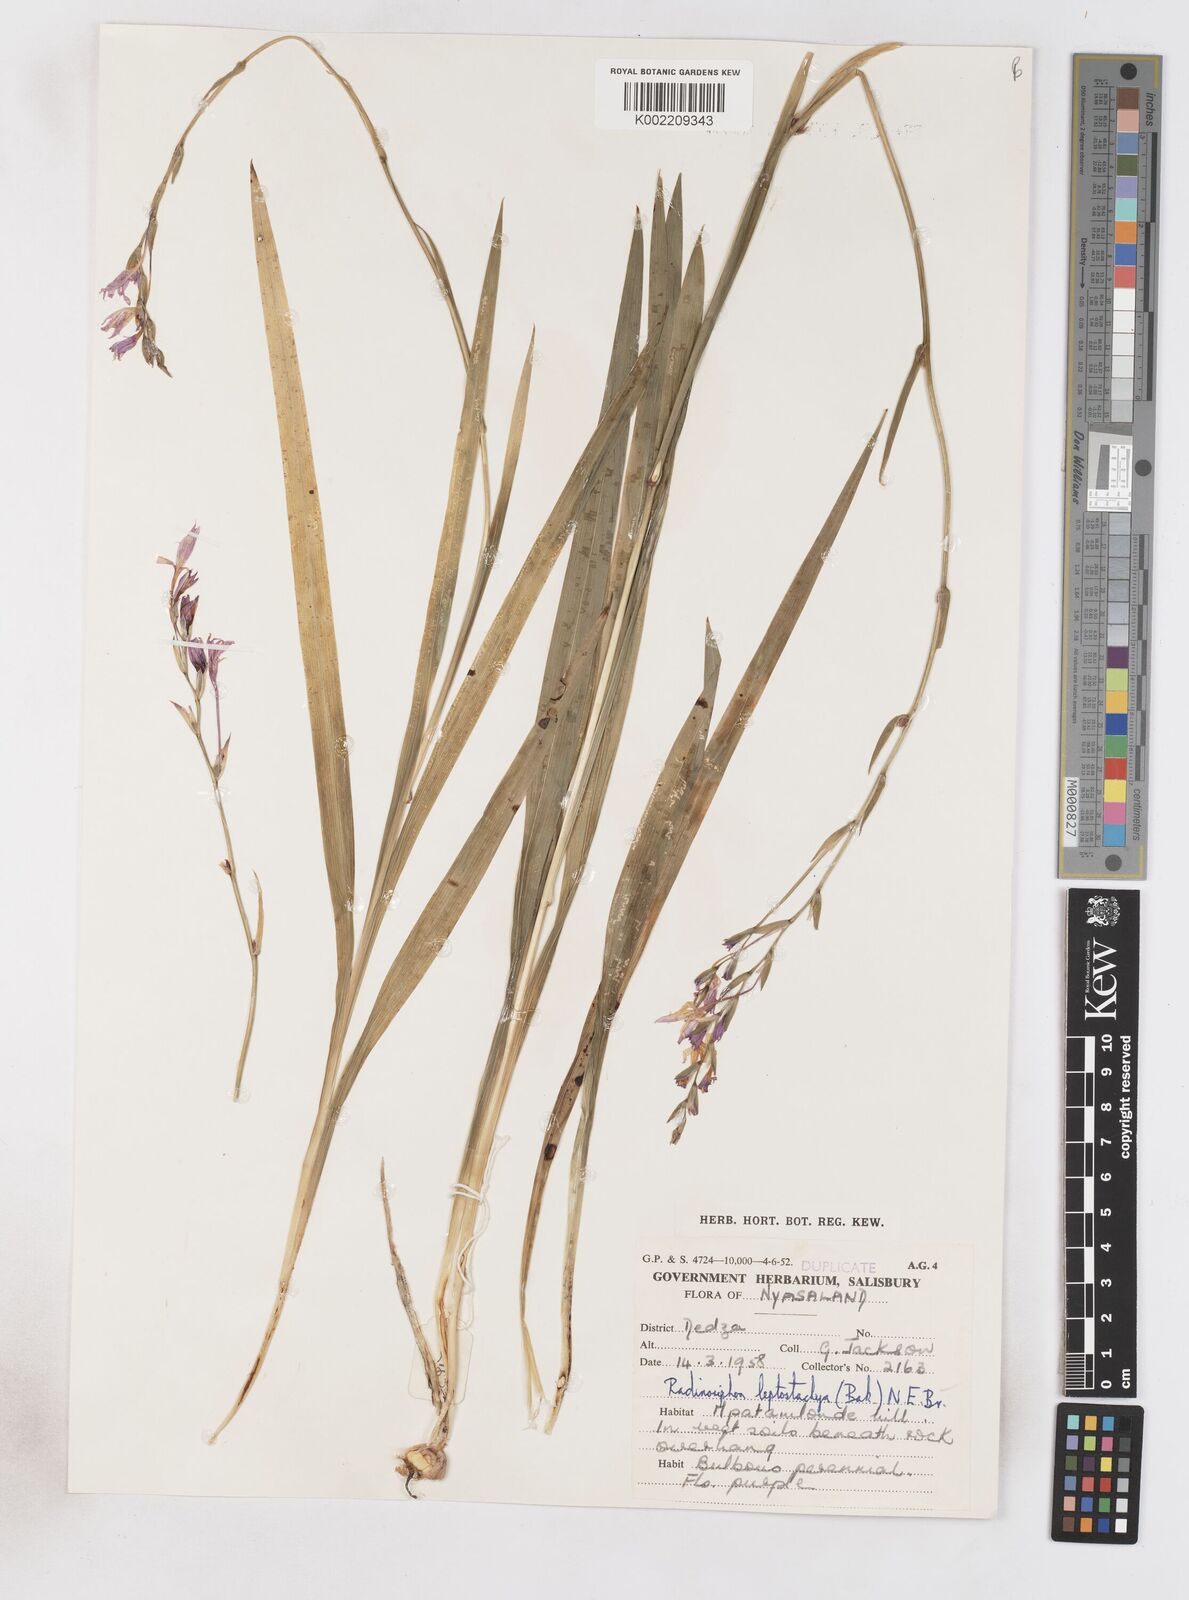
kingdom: Plantae
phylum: Tracheophyta
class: Liliopsida
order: Asparagales
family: Iridaceae
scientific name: Iridaceae
